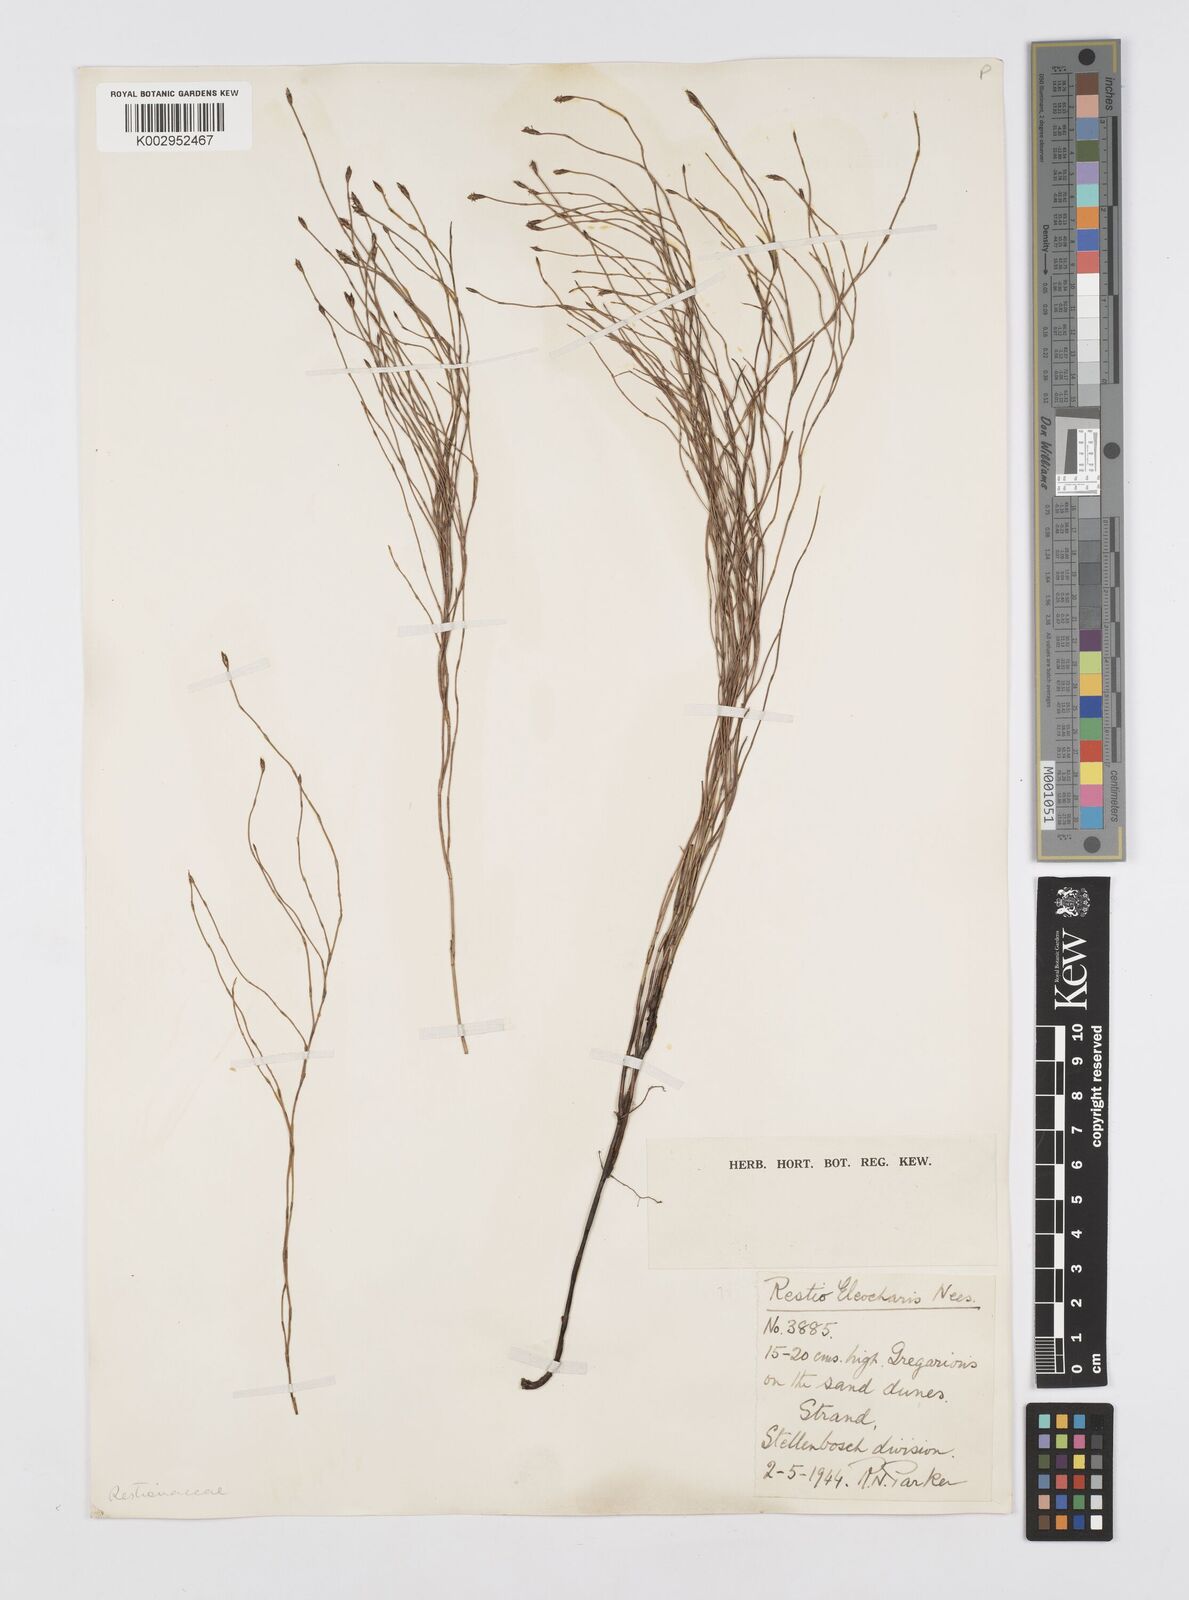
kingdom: Plantae
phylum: Tracheophyta
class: Liliopsida
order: Poales
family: Restionaceae
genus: Restio
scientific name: Restio eleocharis
